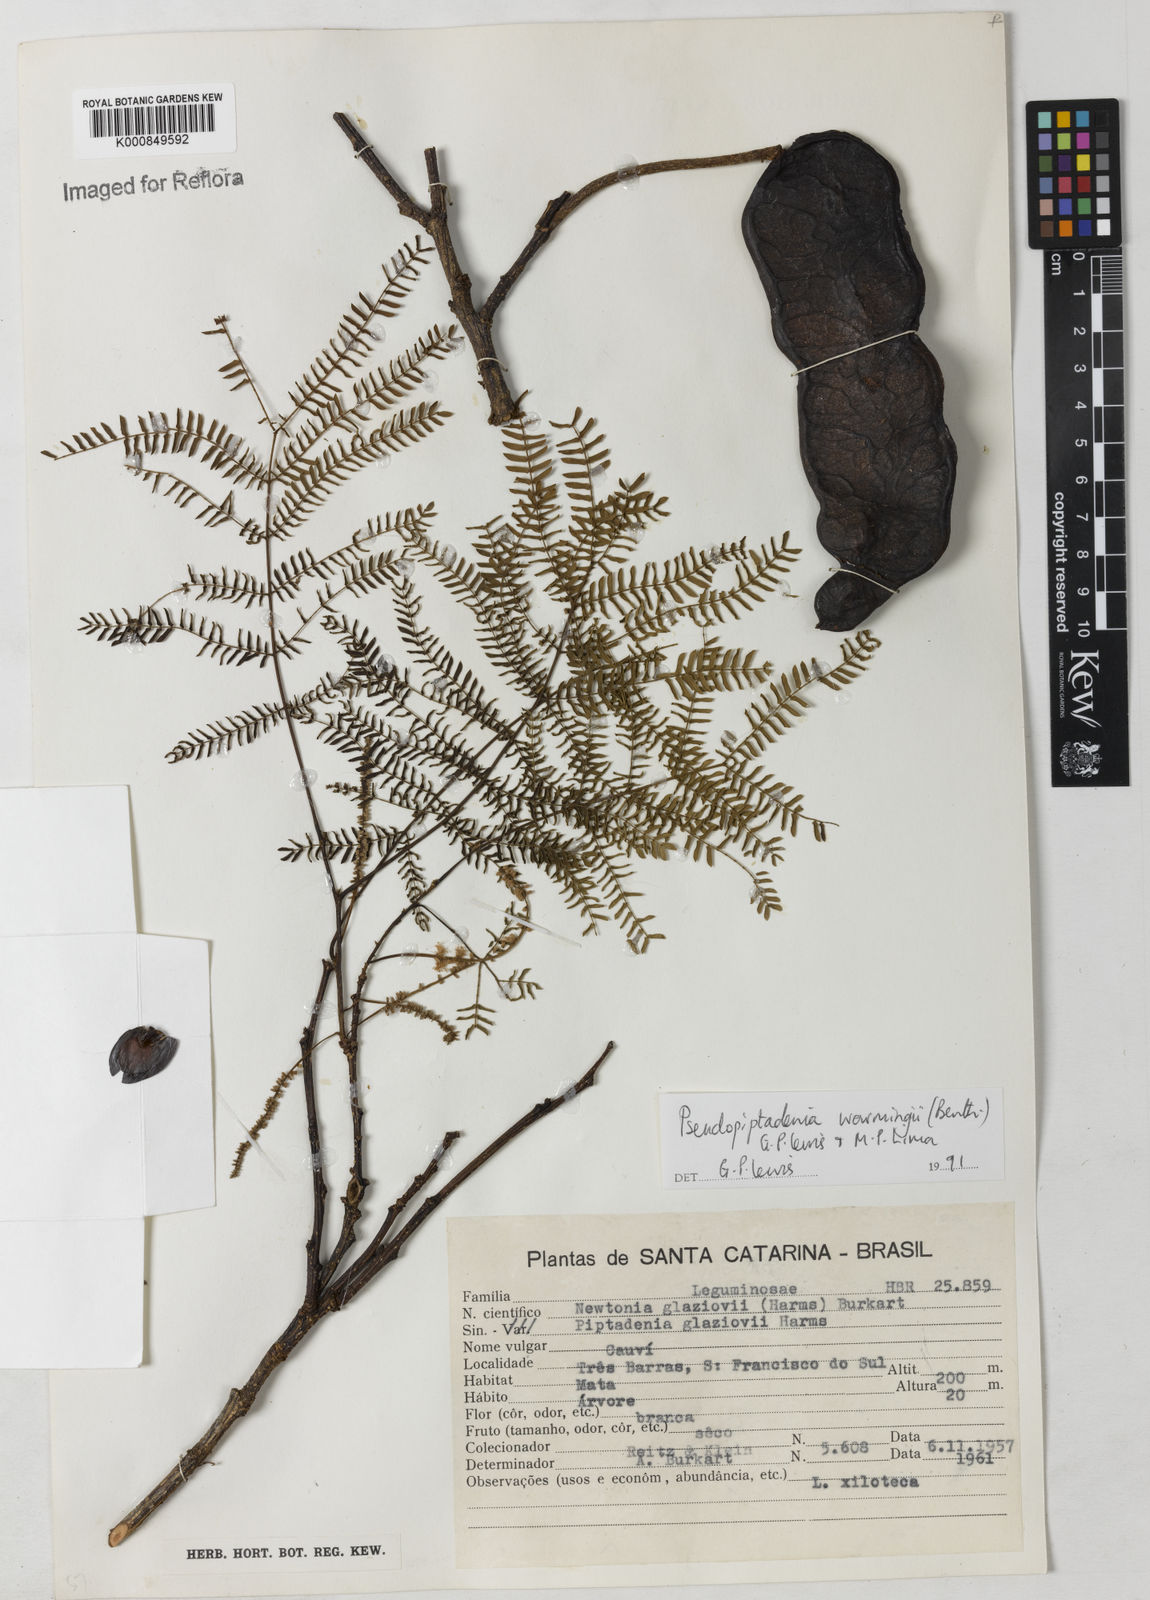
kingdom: Plantae
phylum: Tracheophyta
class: Magnoliopsida
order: Fabales
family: Fabaceae
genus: Pseudopiptadenia
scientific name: Pseudopiptadenia warmingii
